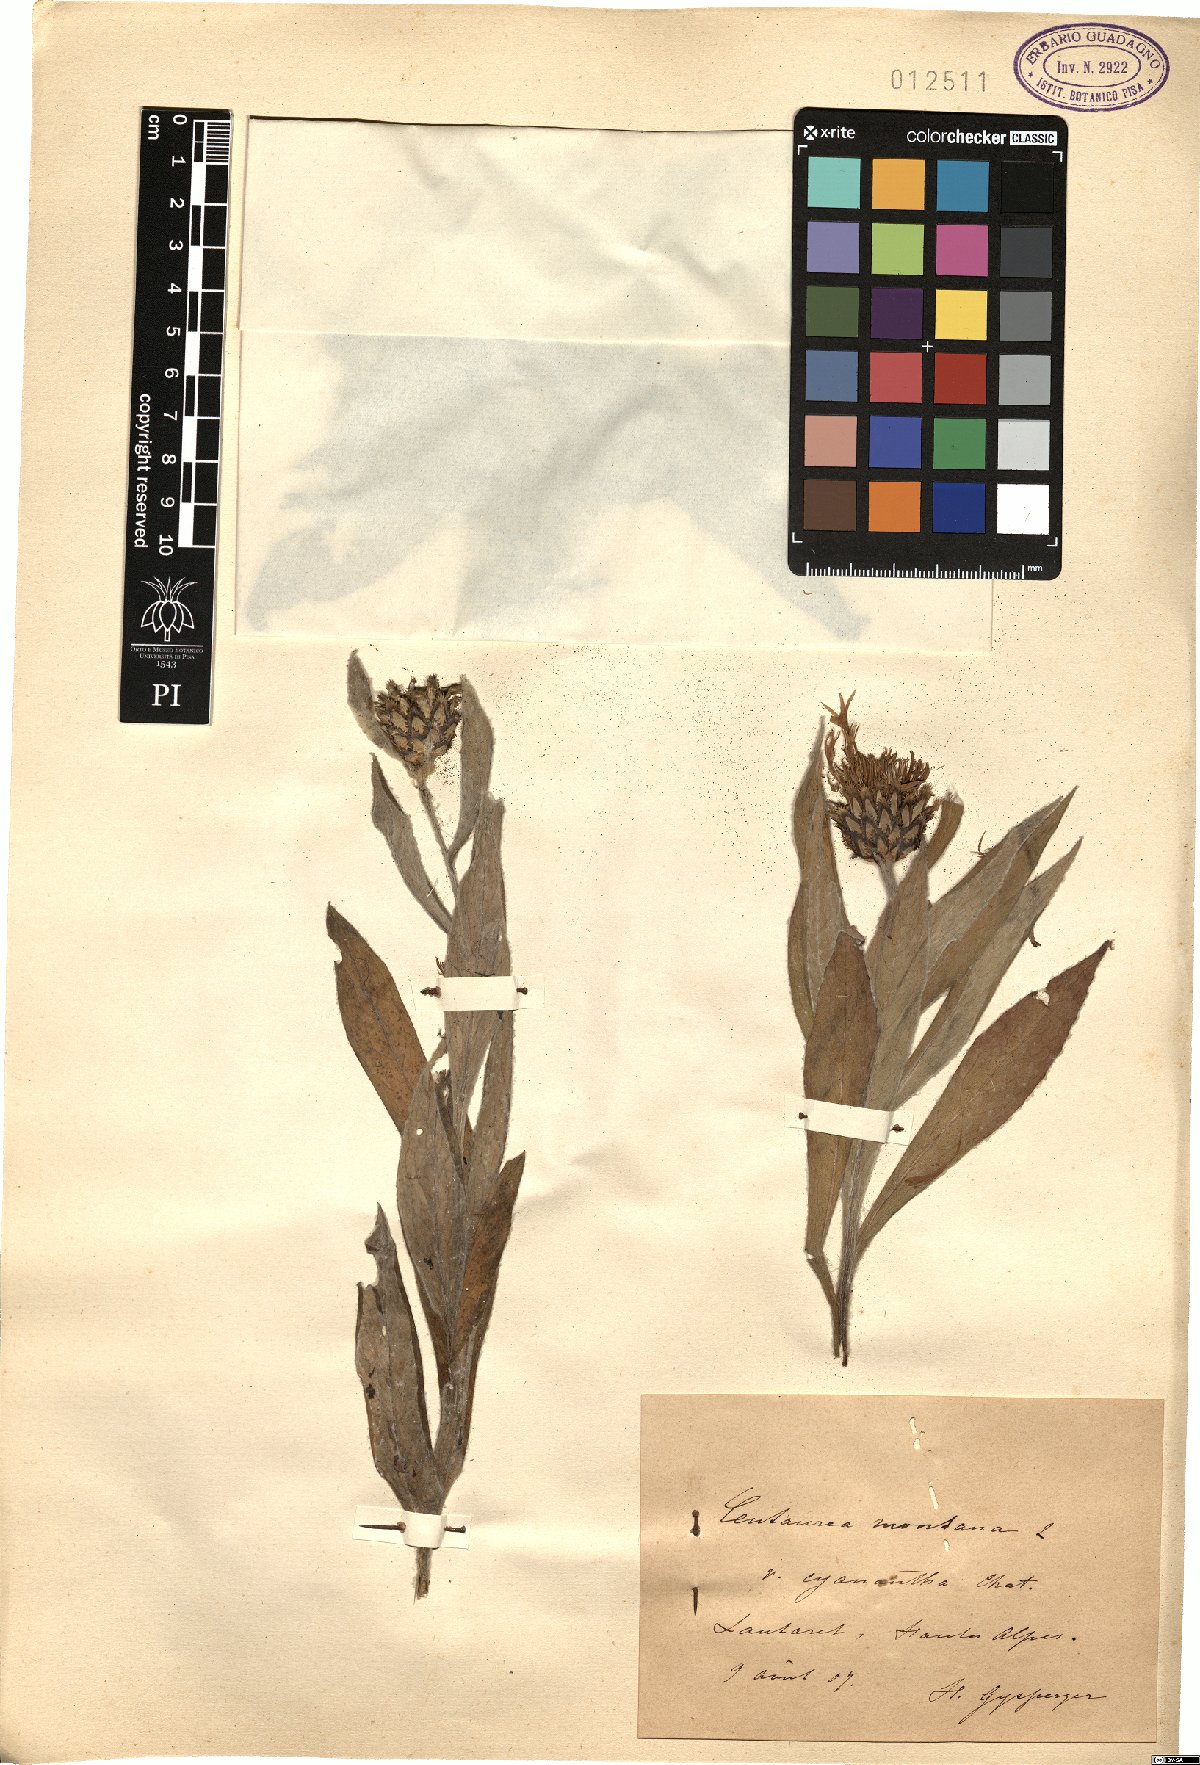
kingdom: Plantae
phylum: Tracheophyta
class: Magnoliopsida
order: Asterales
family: Asteraceae
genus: Centaurea
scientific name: Centaurea montana
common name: Perennial cornflower
